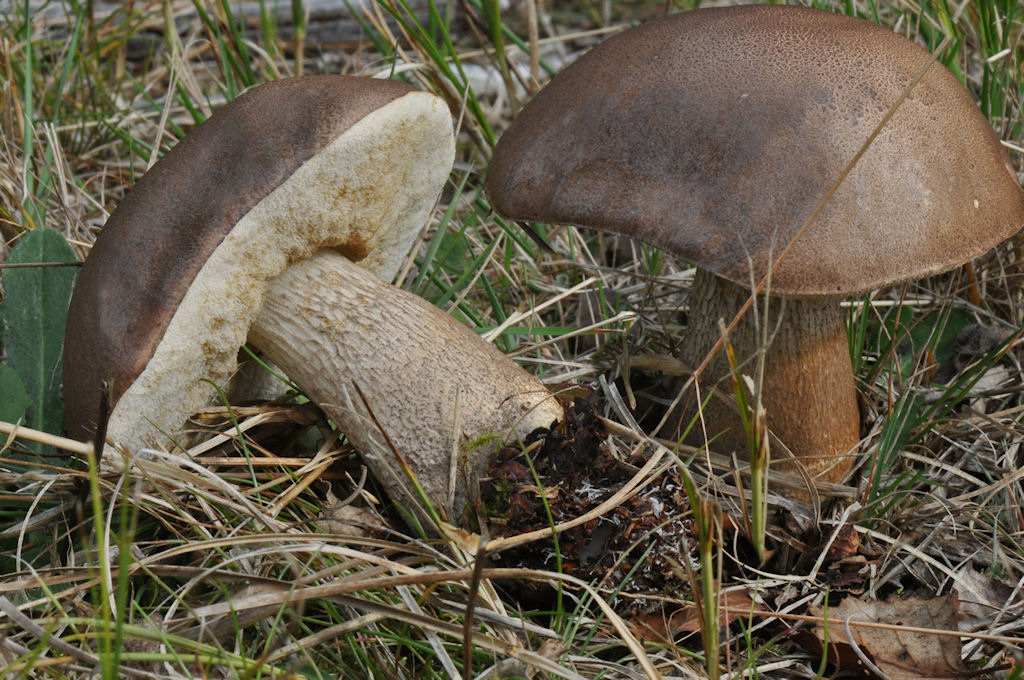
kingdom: Fungi
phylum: Basidiomycota
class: Agaricomycetes
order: Boletales
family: Boletaceae
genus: Tylopilus
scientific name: Tylopilus felleus
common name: galderørhat
